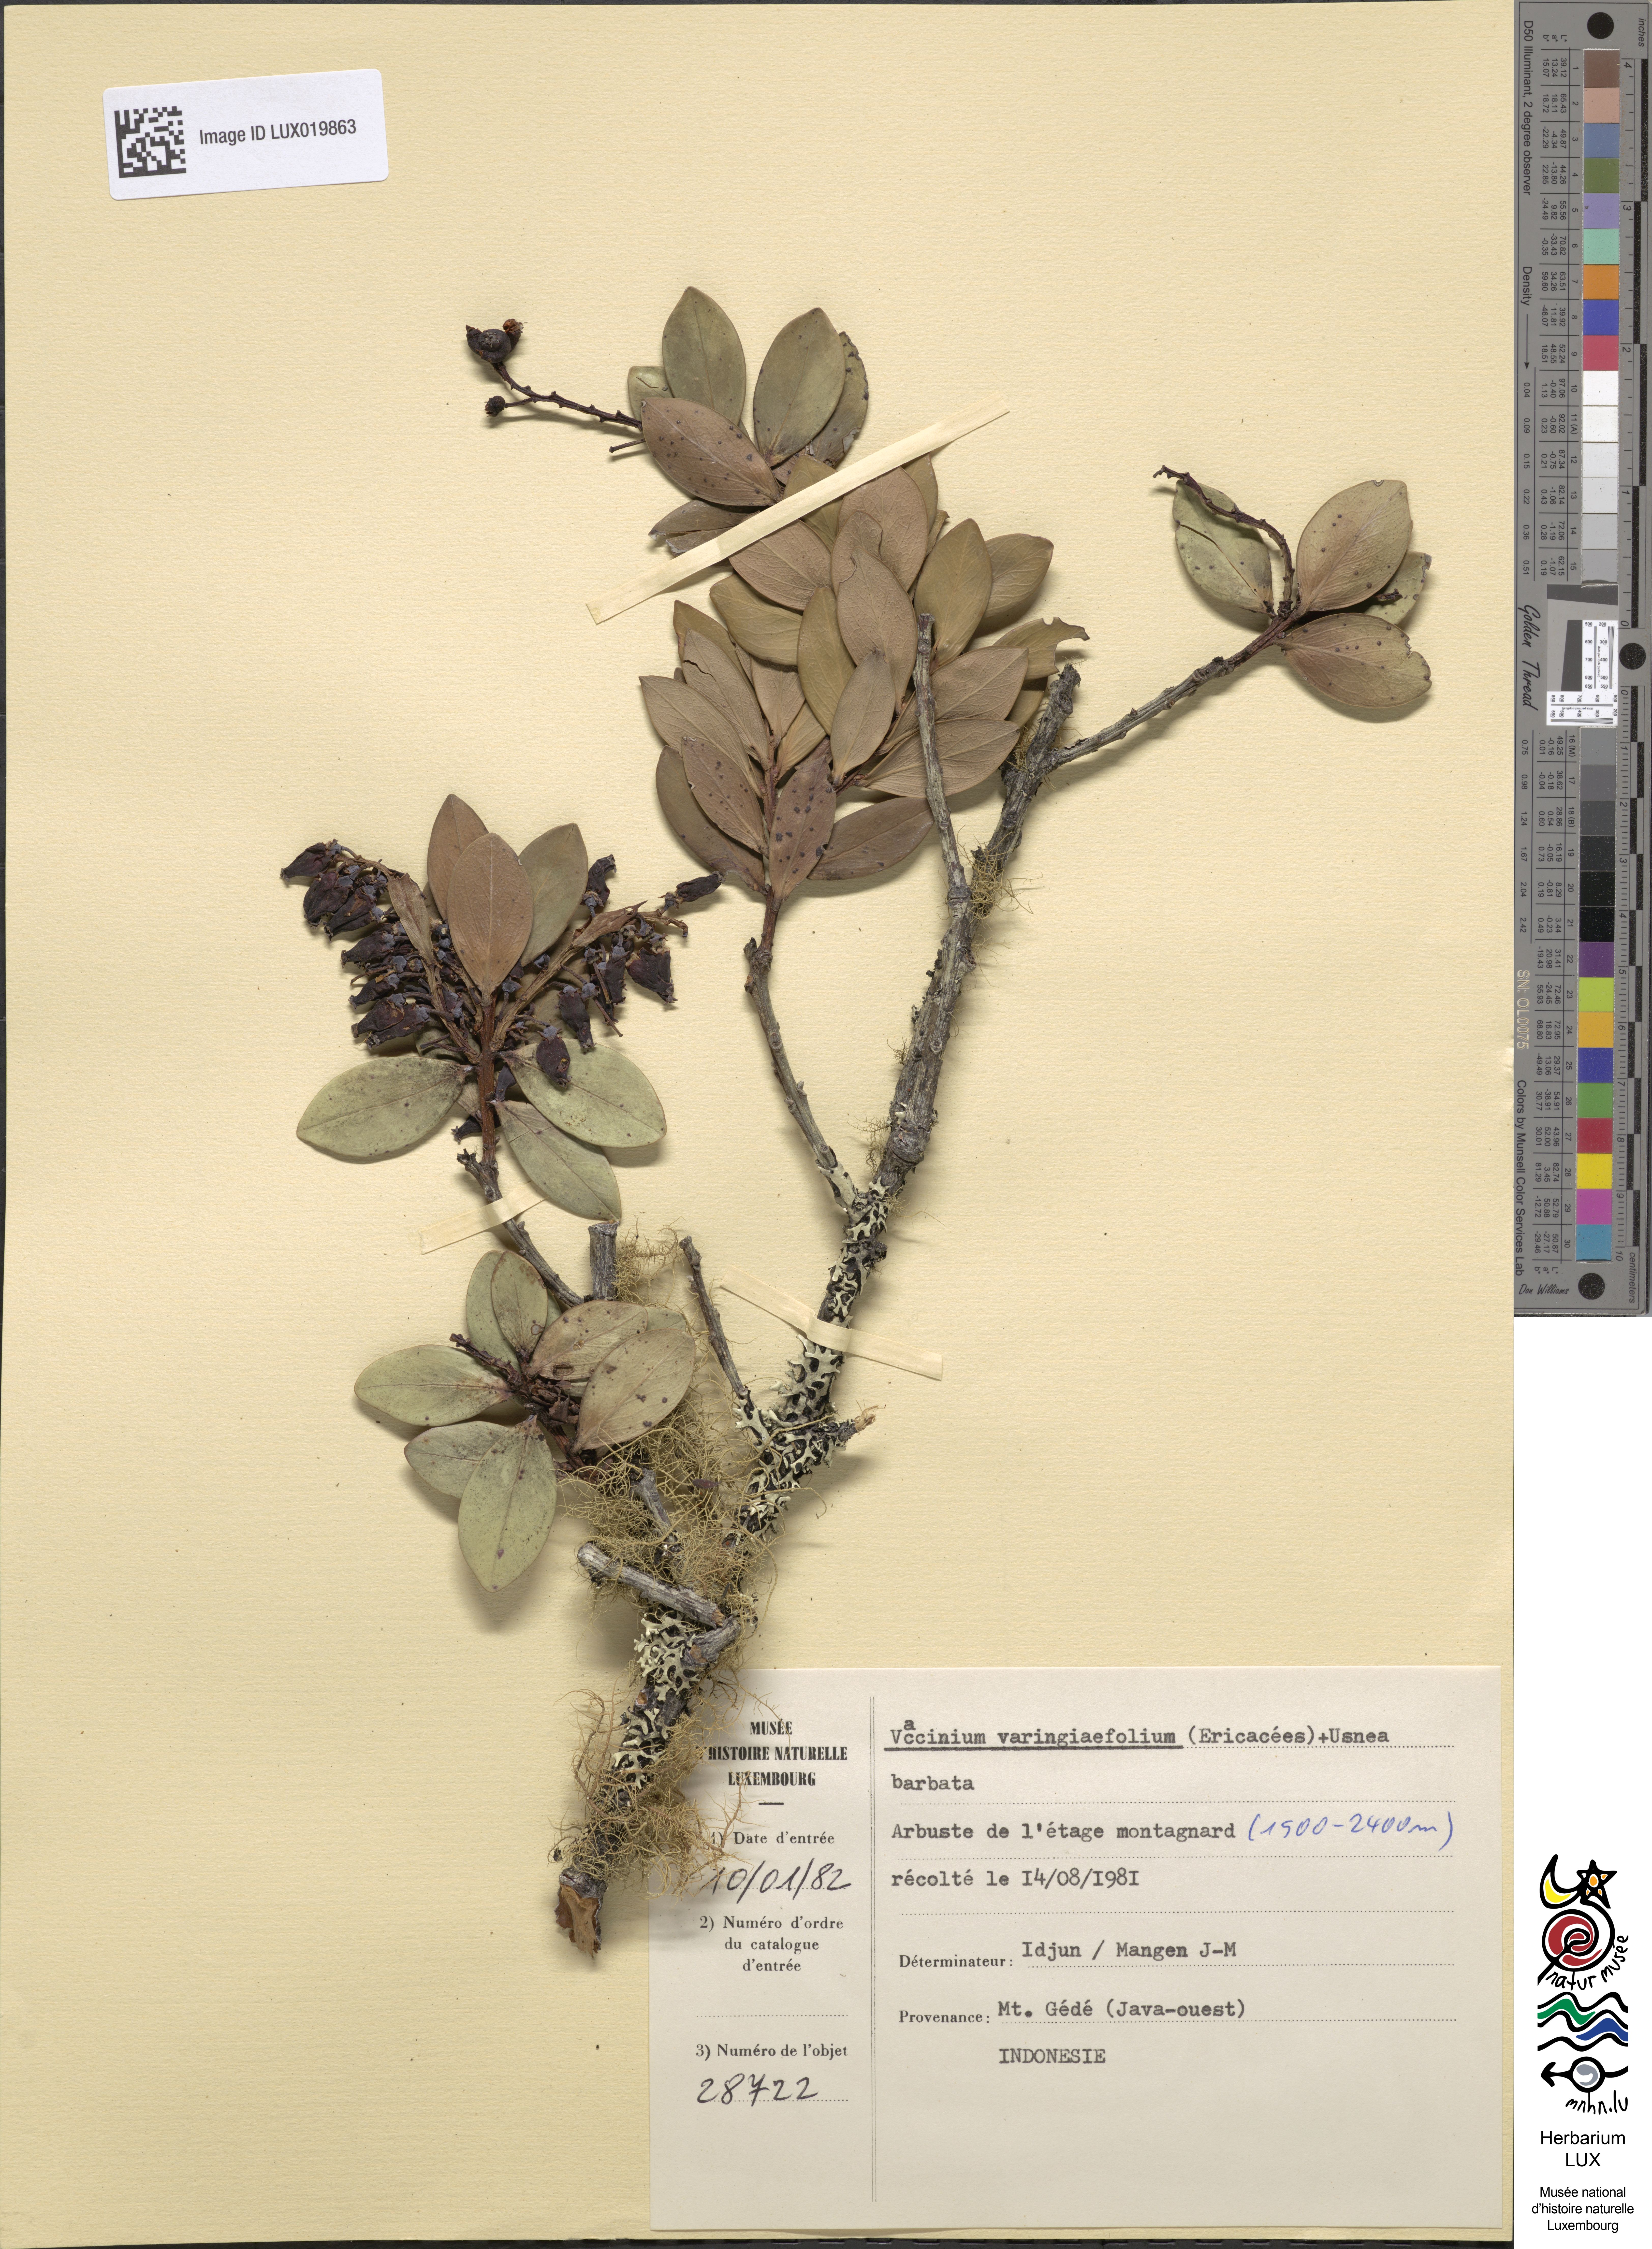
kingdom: Plantae
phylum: Tracheophyta
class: Magnoliopsida
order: Ericales
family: Ericaceae
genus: Vaccinium
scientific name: Vaccinium varingiaefolium
